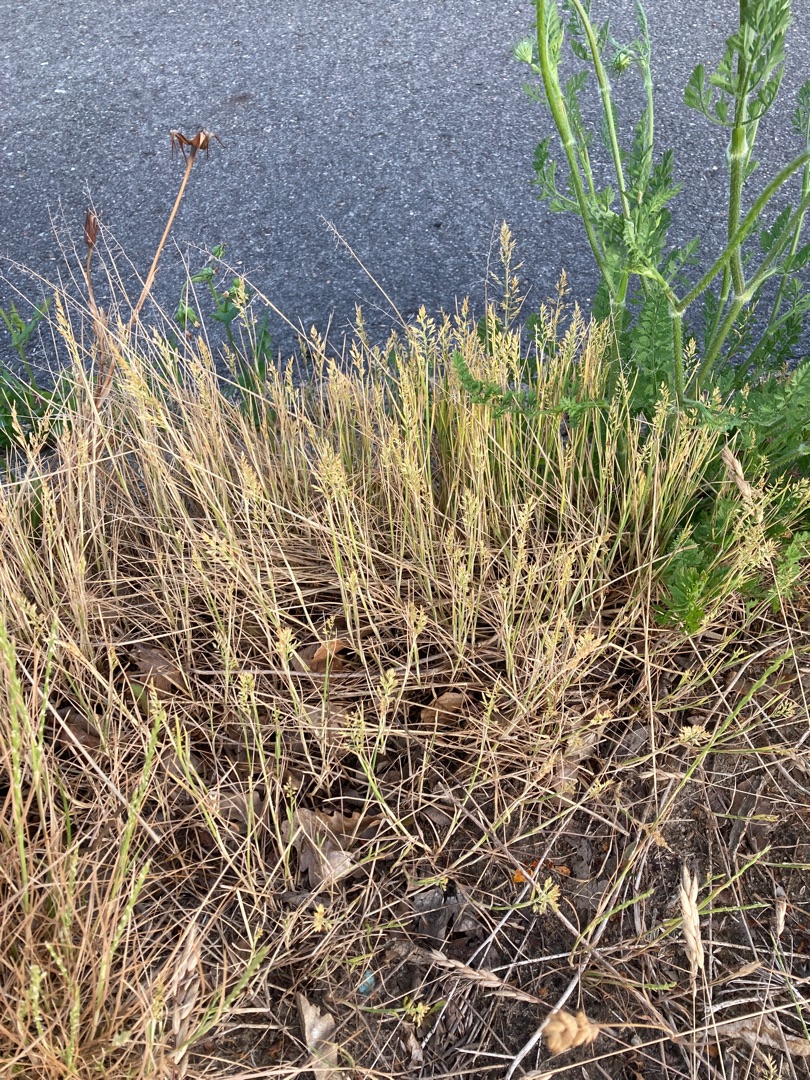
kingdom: Plantae
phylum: Tracheophyta
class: Liliopsida
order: Poales
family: Poaceae
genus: Poa
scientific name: Poa compressa
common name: Fladstrået rapgræs
